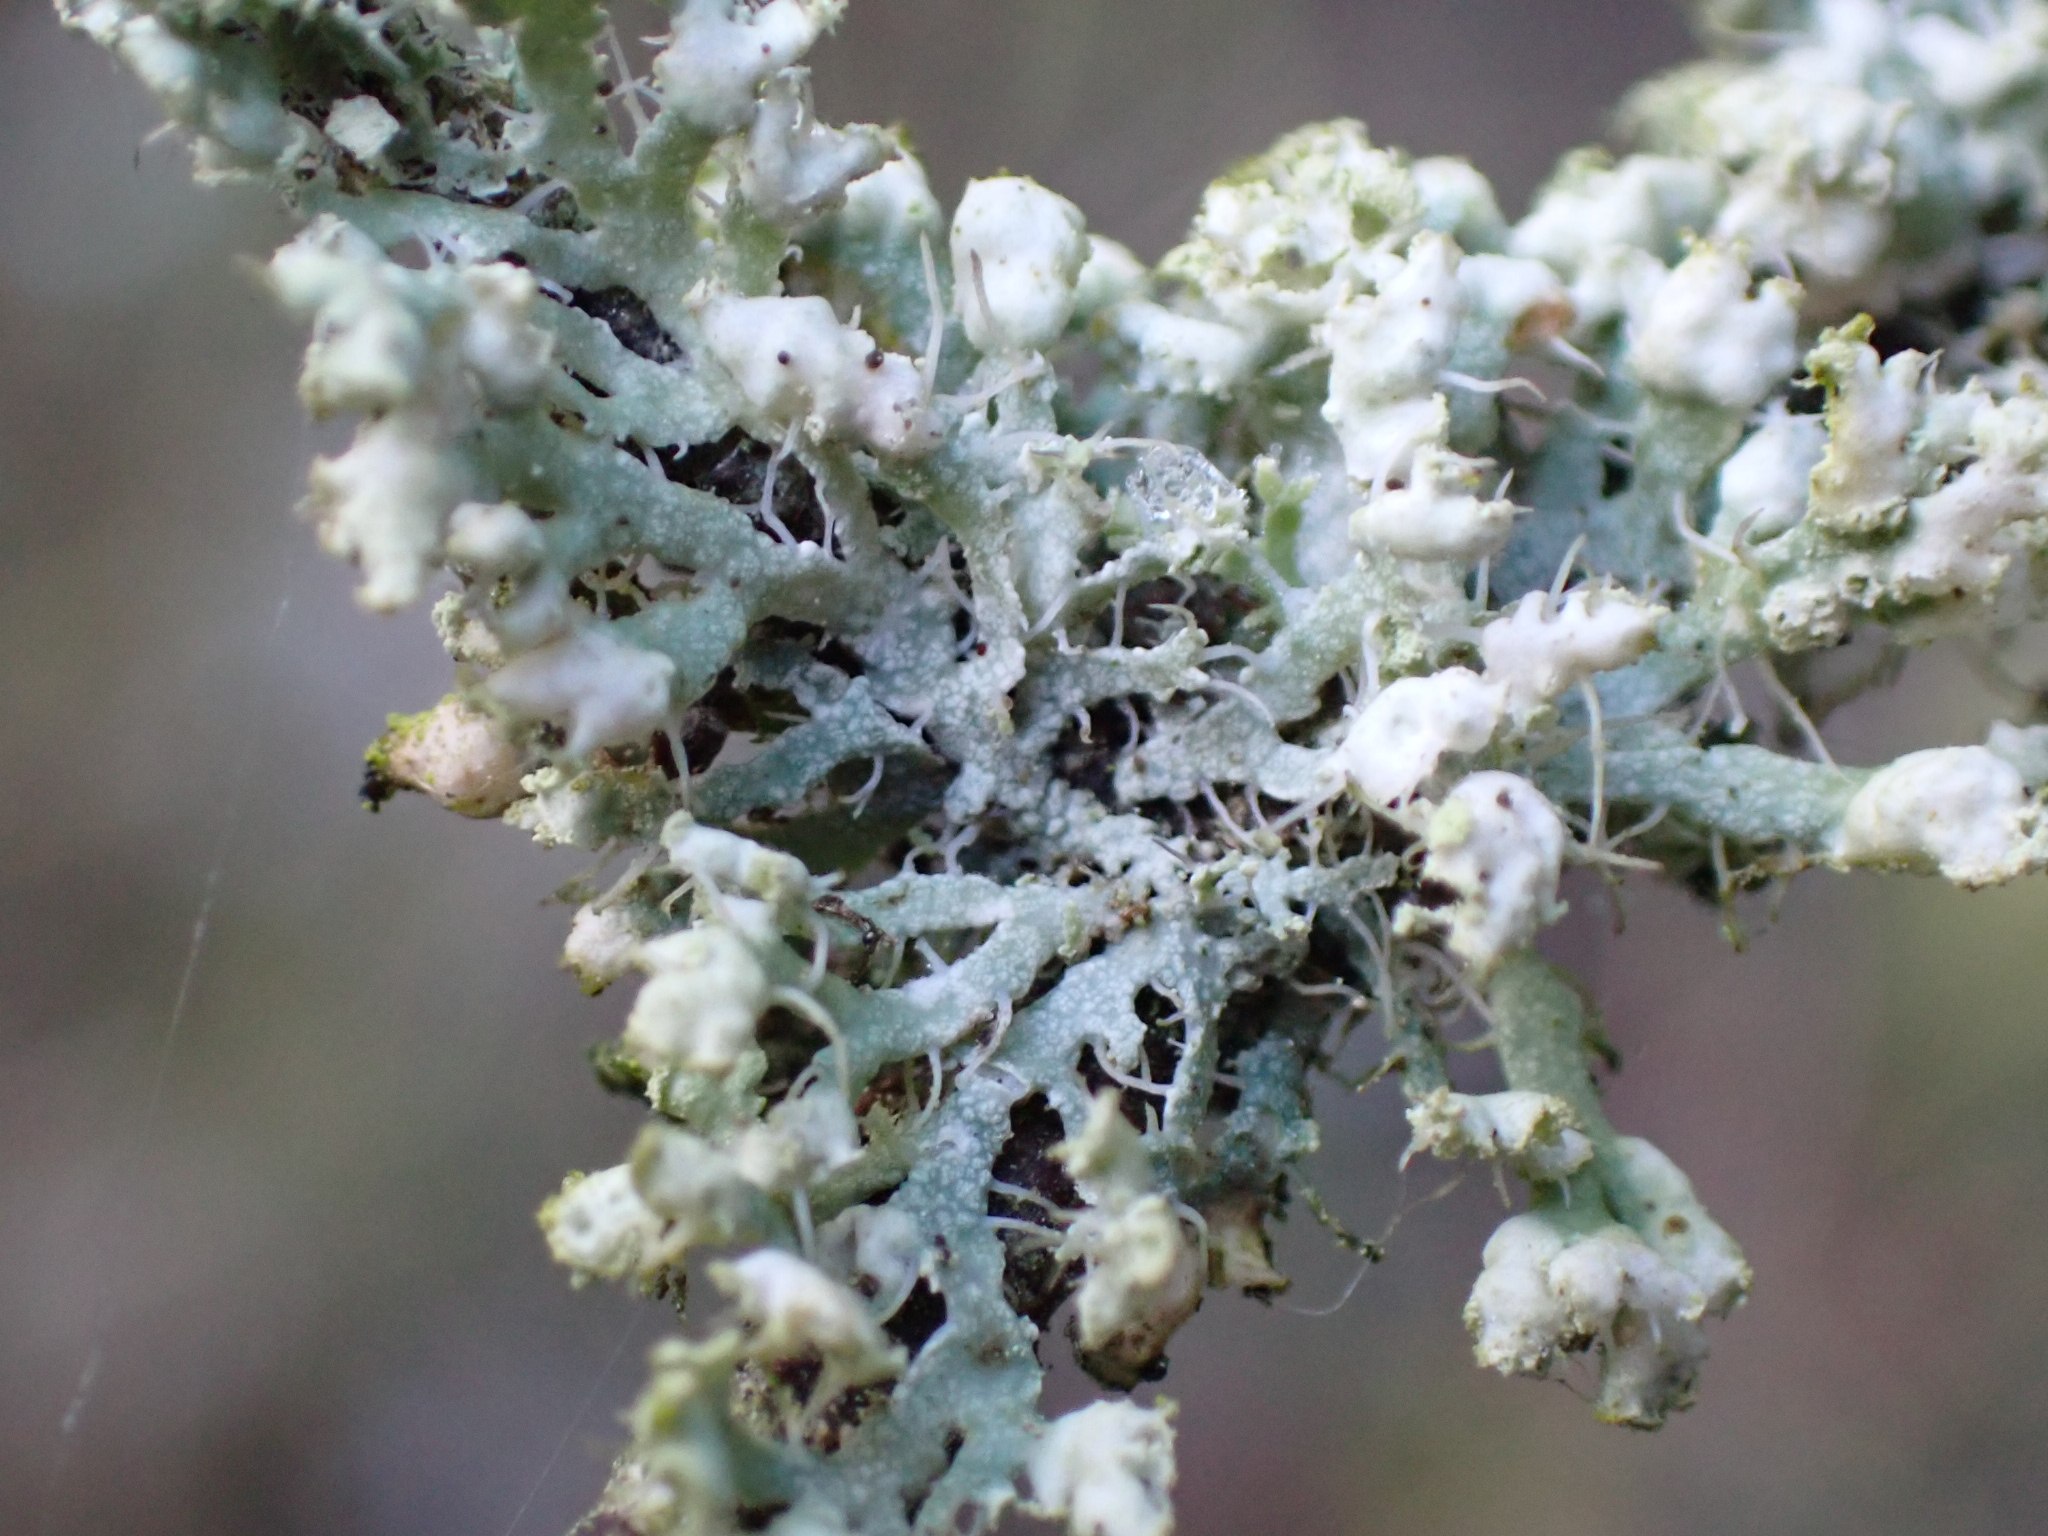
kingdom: Fungi
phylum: Ascomycota
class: Lecanoromycetes
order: Caliciales
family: Physciaceae
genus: Physcia
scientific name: Physcia adscendens
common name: hætte-rosetlav
